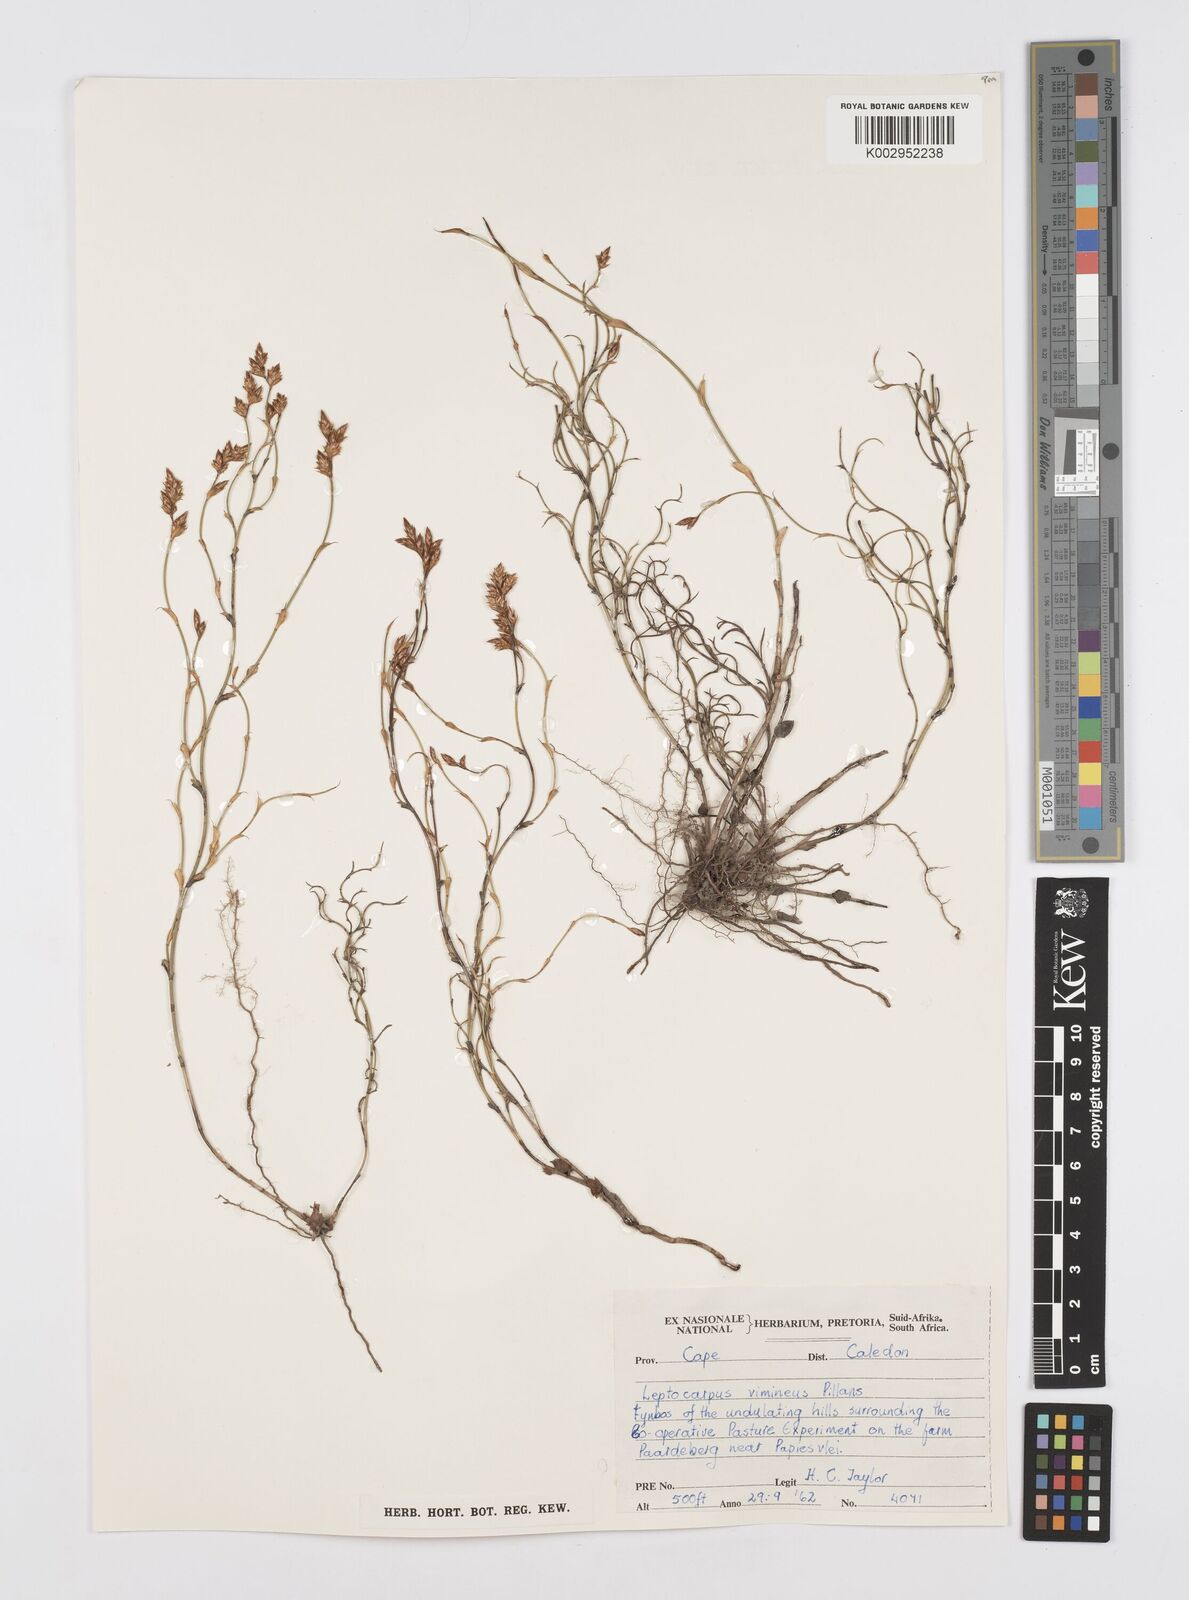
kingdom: Plantae
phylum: Tracheophyta
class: Liliopsida
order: Poales
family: Restionaceae
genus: Restio
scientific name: Restio vimineus
